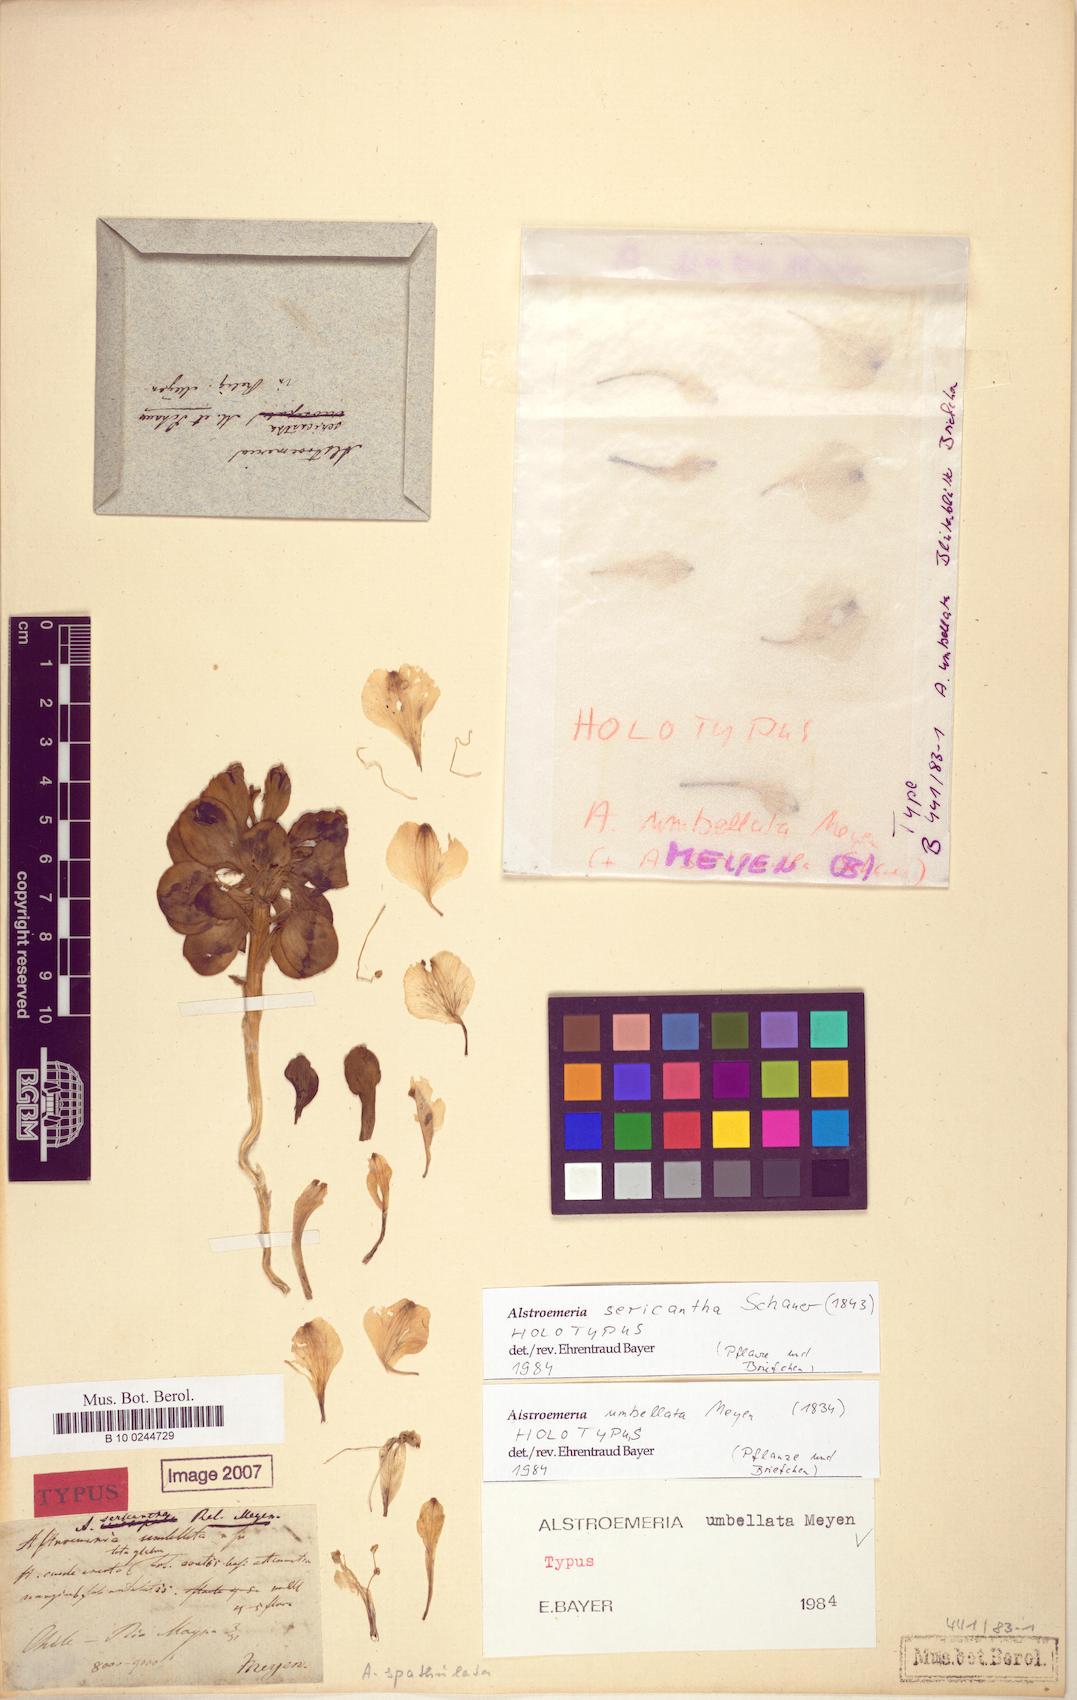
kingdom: Plantae
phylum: Tracheophyta
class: Liliopsida
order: Liliales
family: Alstroemeriaceae
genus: Alstroemeria
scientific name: Alstroemeria umbellata
